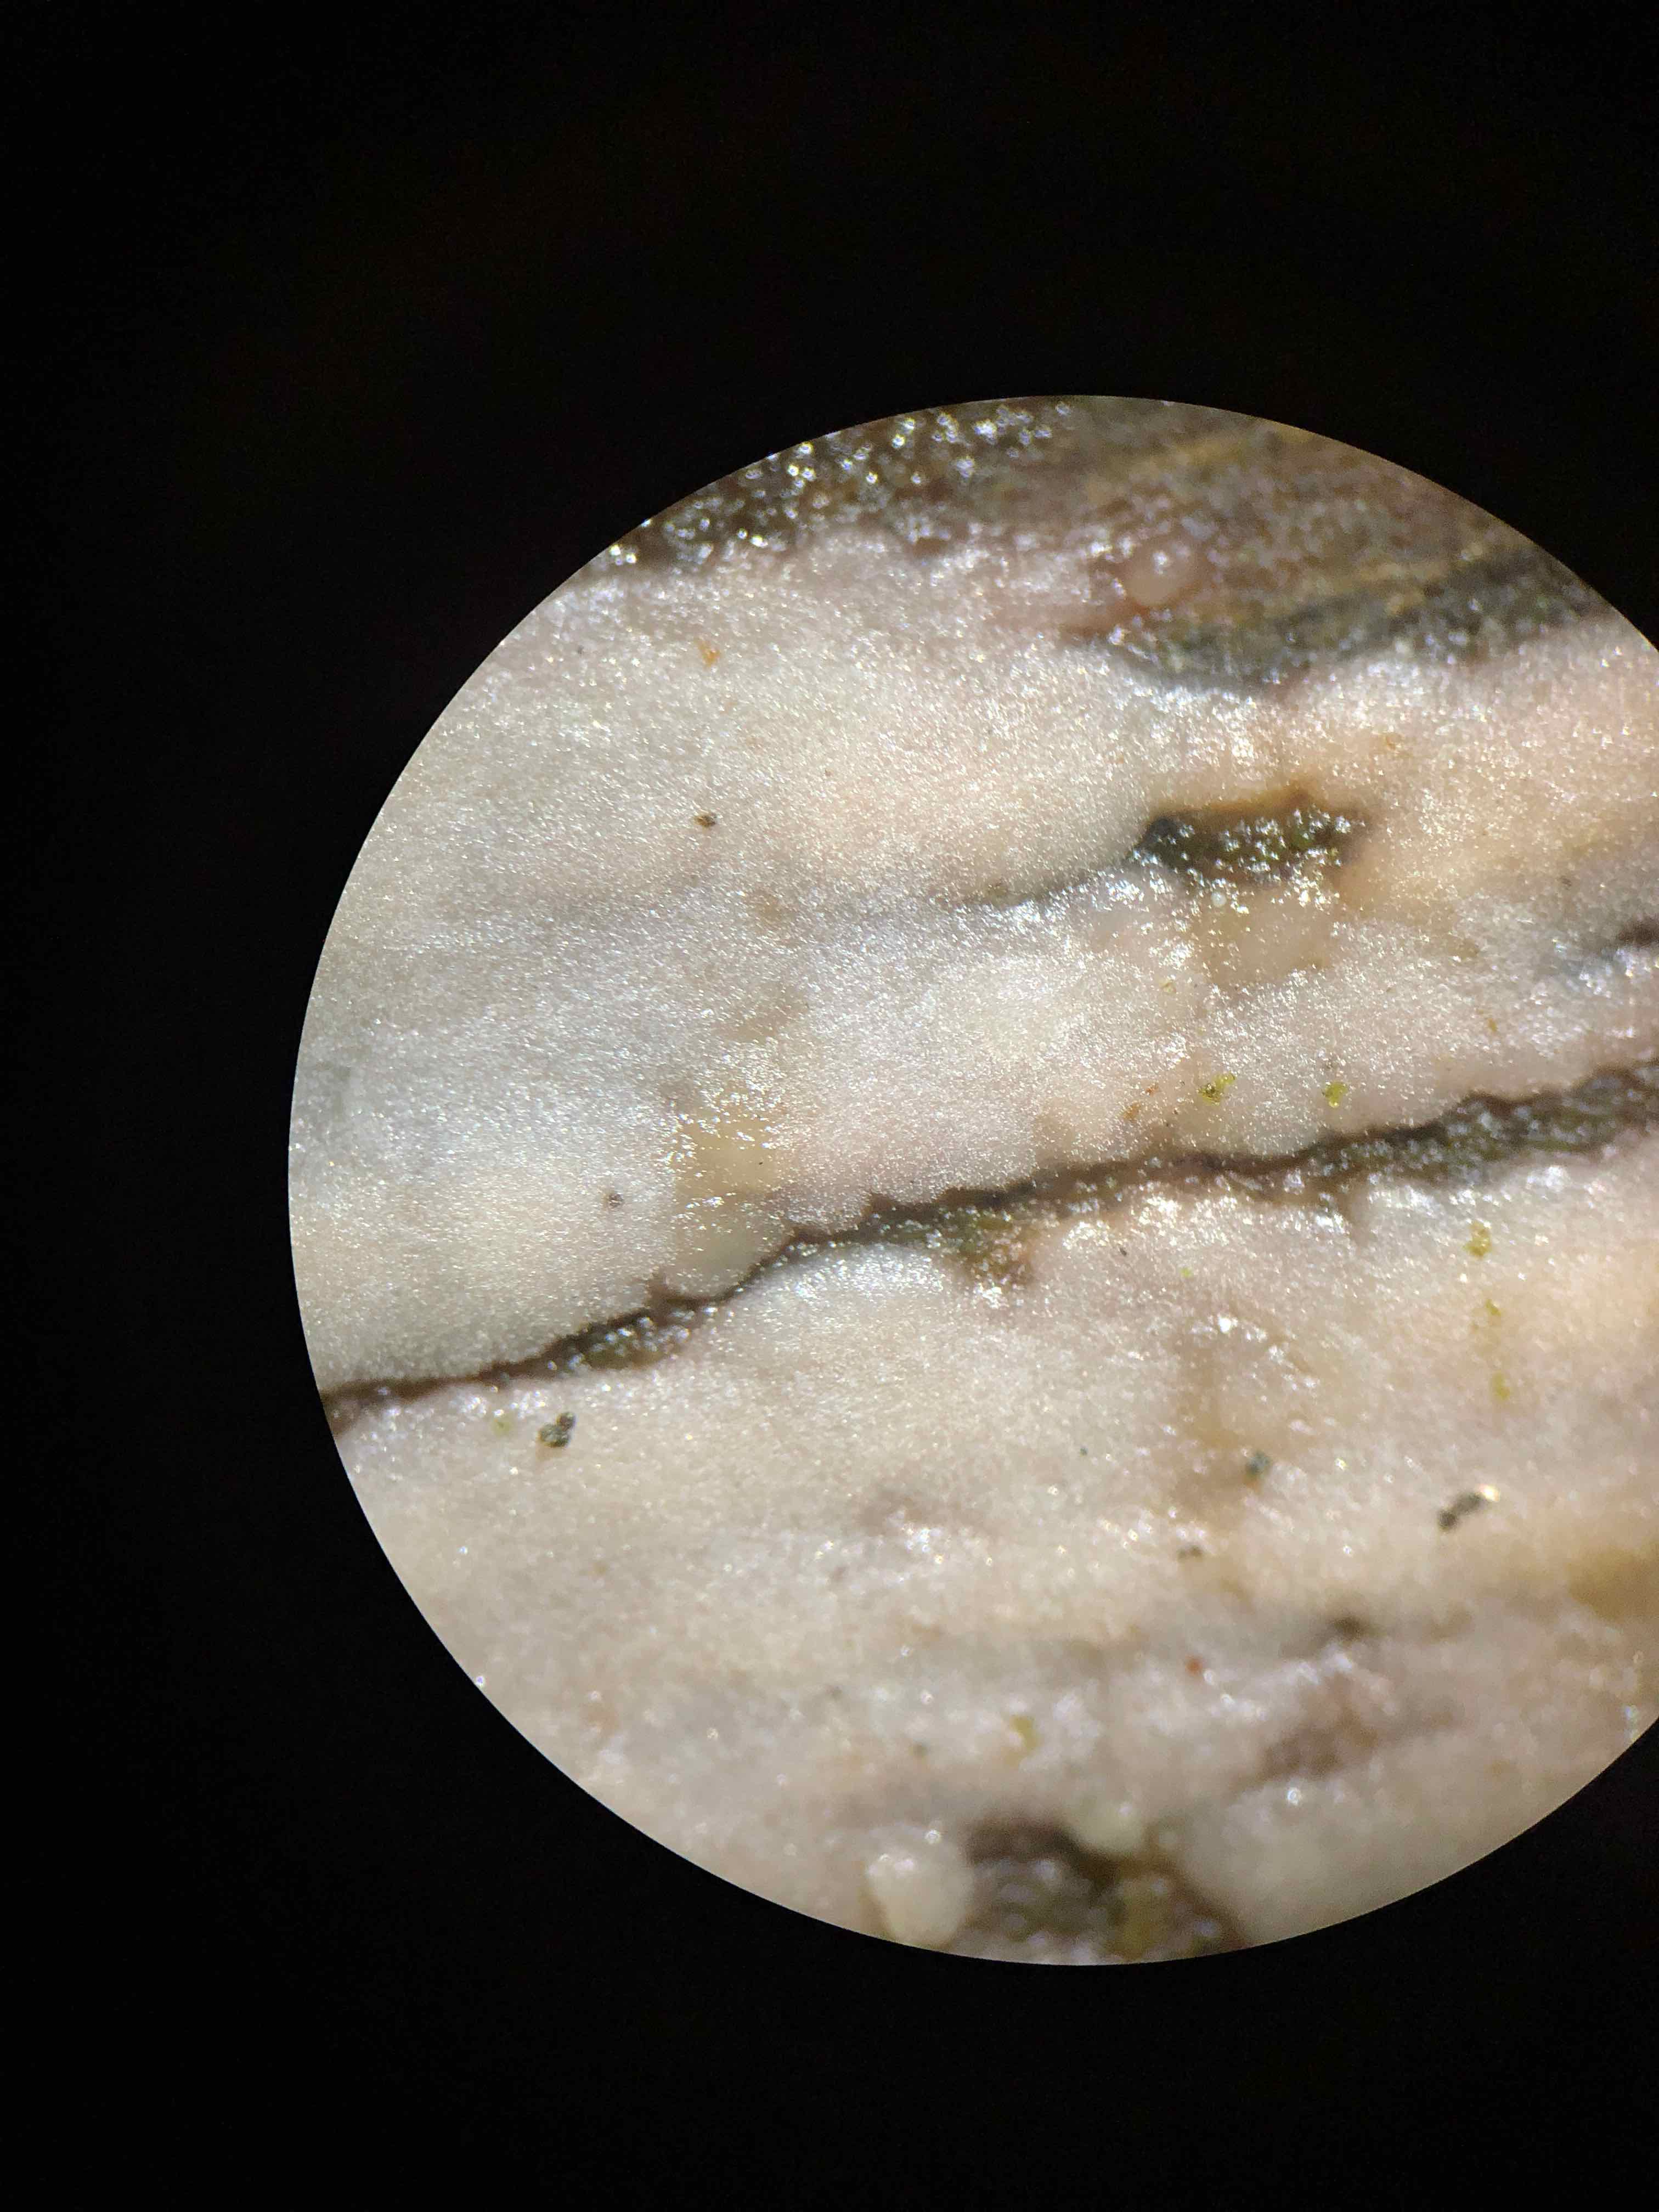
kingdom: Fungi
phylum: Basidiomycota
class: Tremellomycetes
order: Tremellales
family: Exidiaceae
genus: Exidiopsis
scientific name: Exidiopsis effusa
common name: smuk bævrehinde
